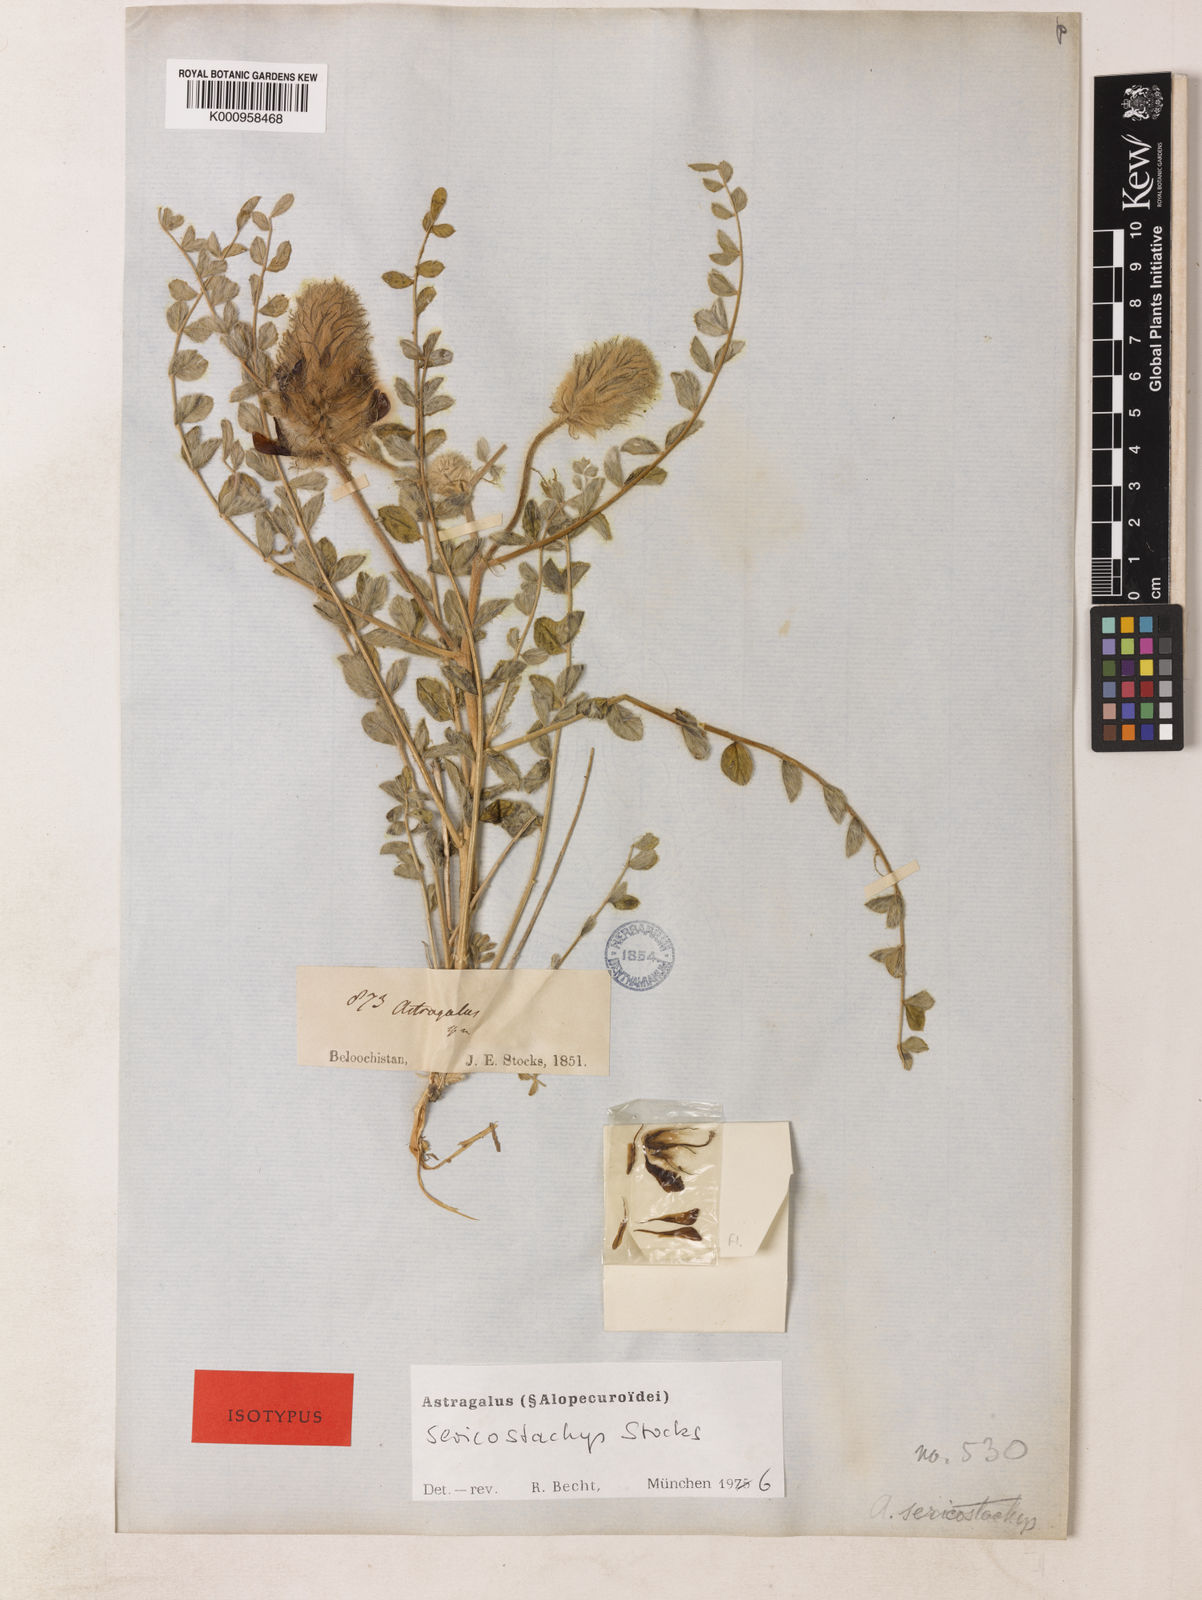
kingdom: Plantae
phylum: Tracheophyta
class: Magnoliopsida
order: Fabales
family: Fabaceae
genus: Astragalus
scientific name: Astragalus
